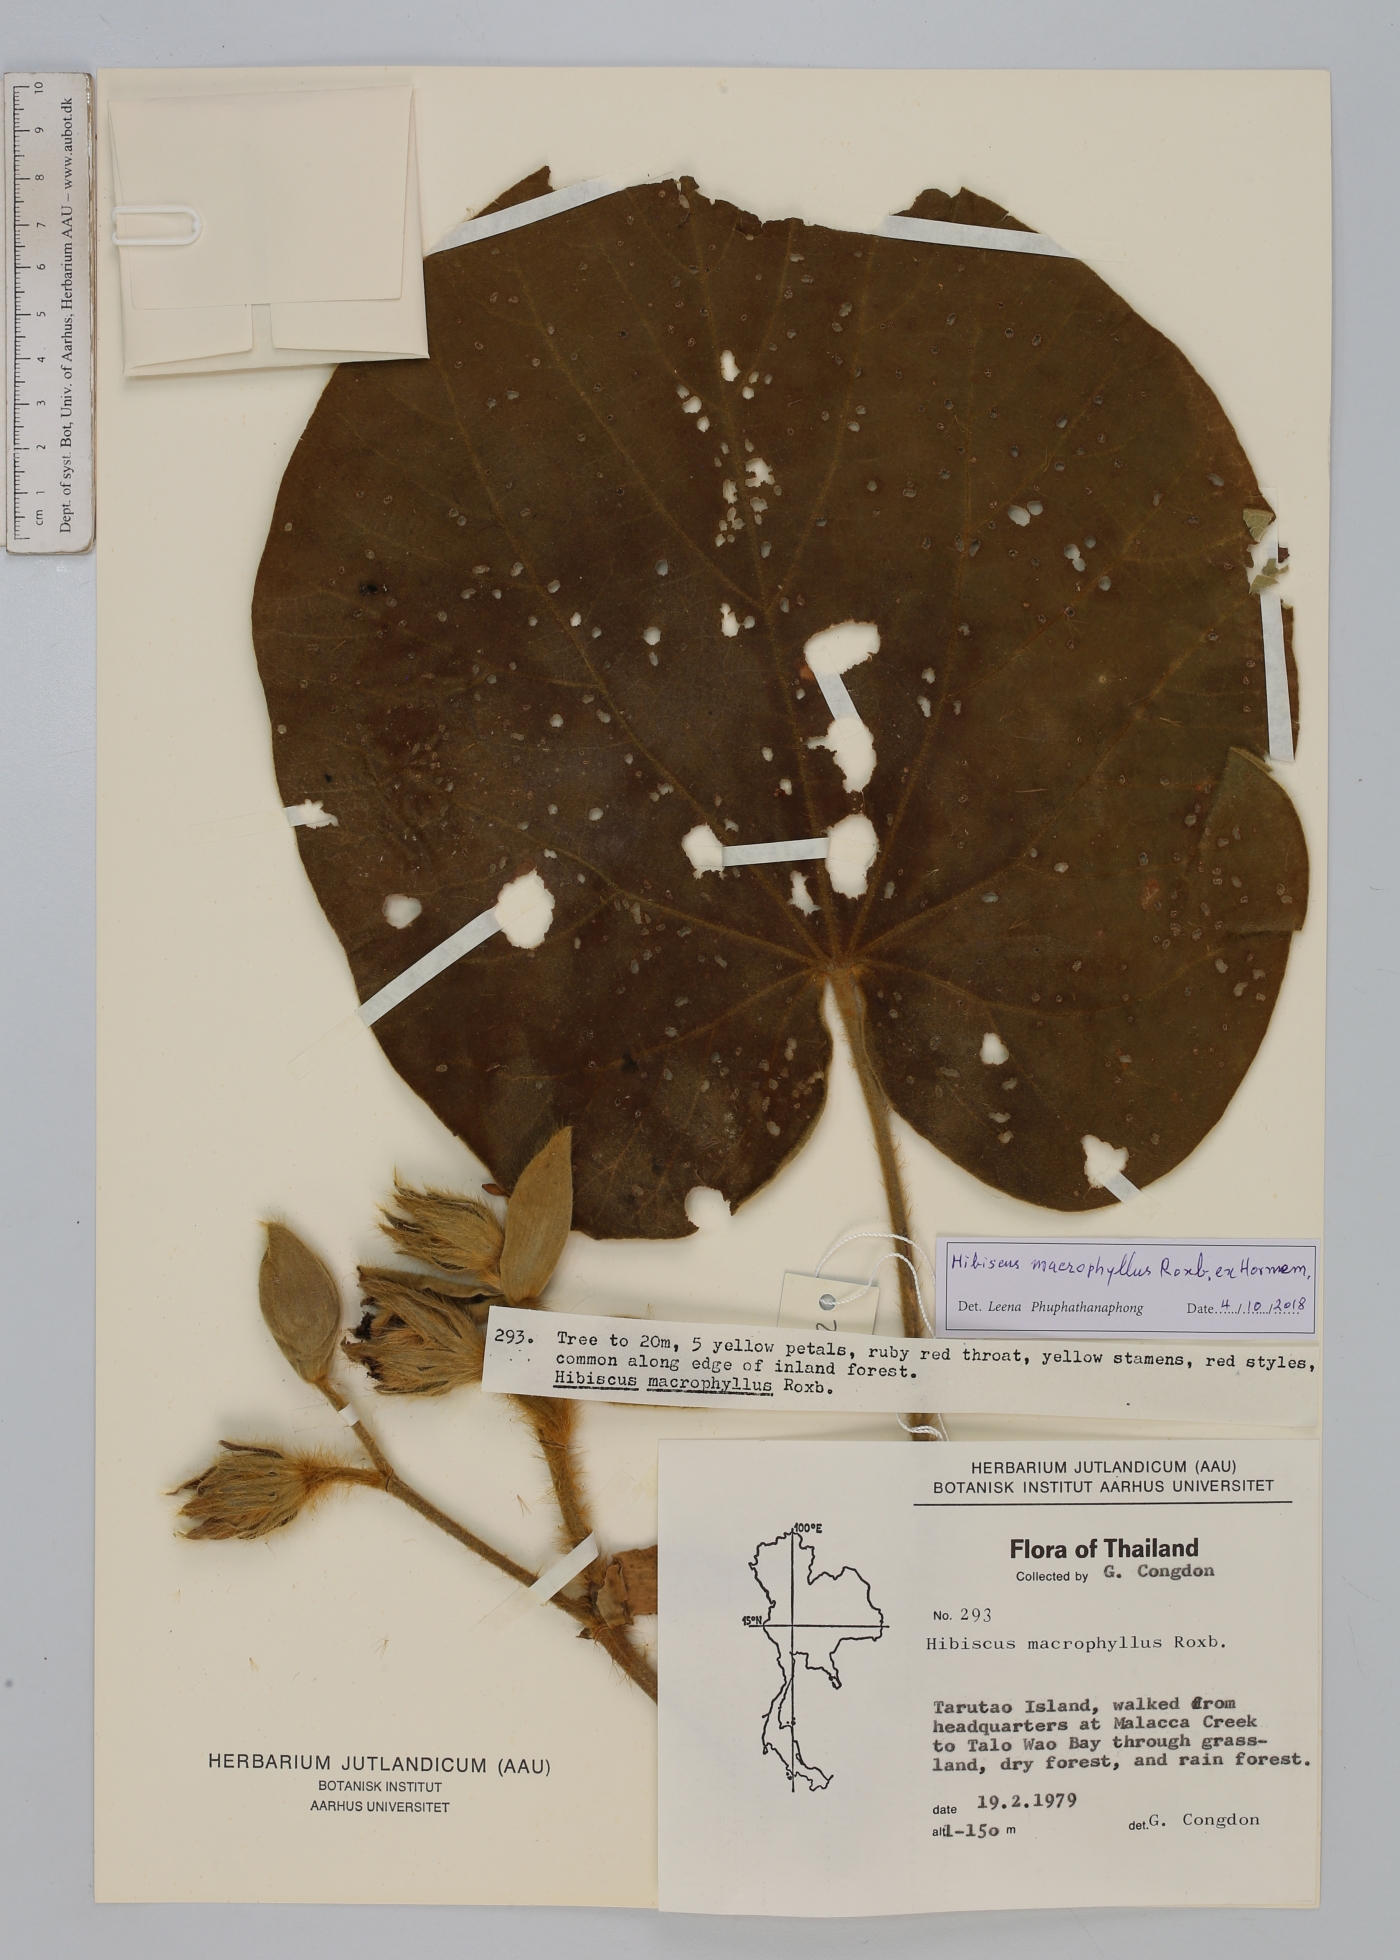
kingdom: Plantae
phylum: Tracheophyta
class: Magnoliopsida
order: Malvales
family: Malvaceae
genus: Talipariti
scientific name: Talipariti macrophyllum
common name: Largeleaf rosemallow
